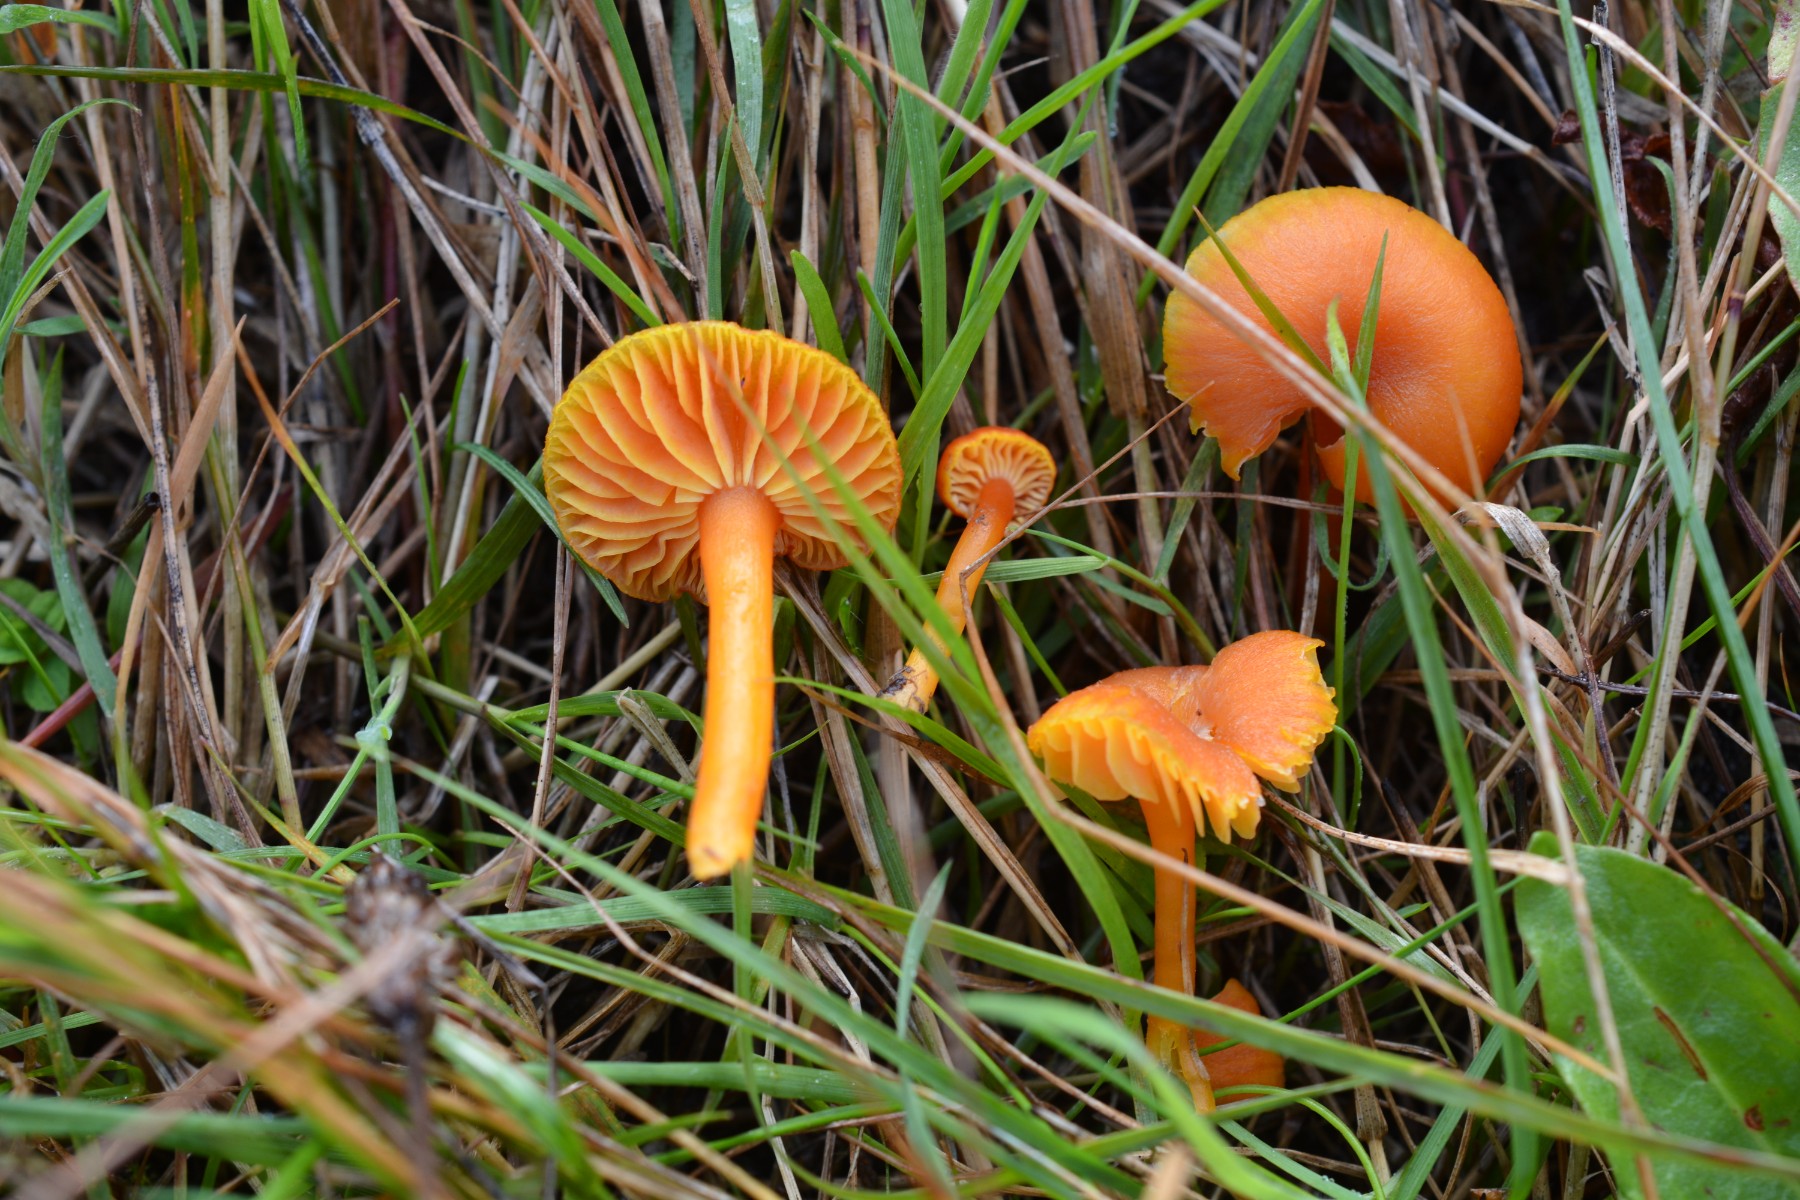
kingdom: Fungi
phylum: Basidiomycota
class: Agaricomycetes
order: Agaricales
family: Hygrophoraceae
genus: Hygrocybe
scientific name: Hygrocybe miniata
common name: mønje-vokshat
